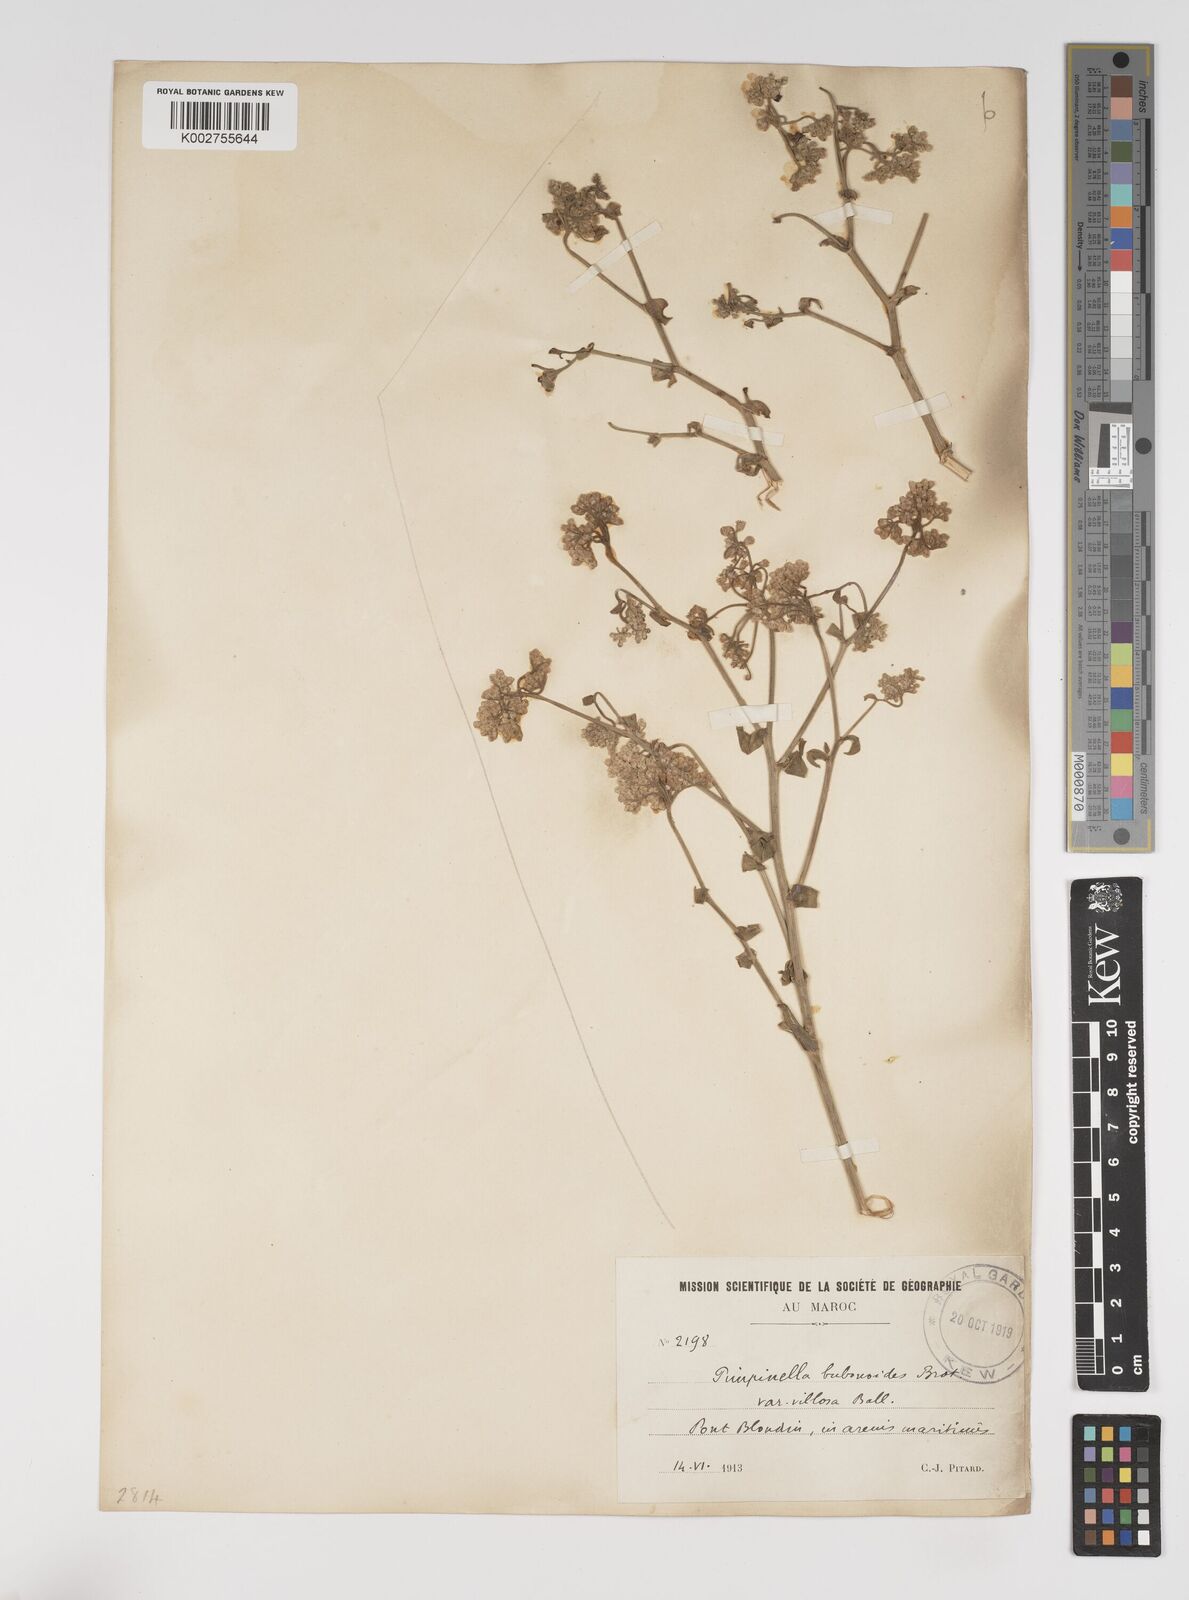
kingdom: Plantae
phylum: Tracheophyta
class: Magnoliopsida
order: Apiales
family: Apiaceae
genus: Pimpinella
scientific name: Pimpinella villosa
